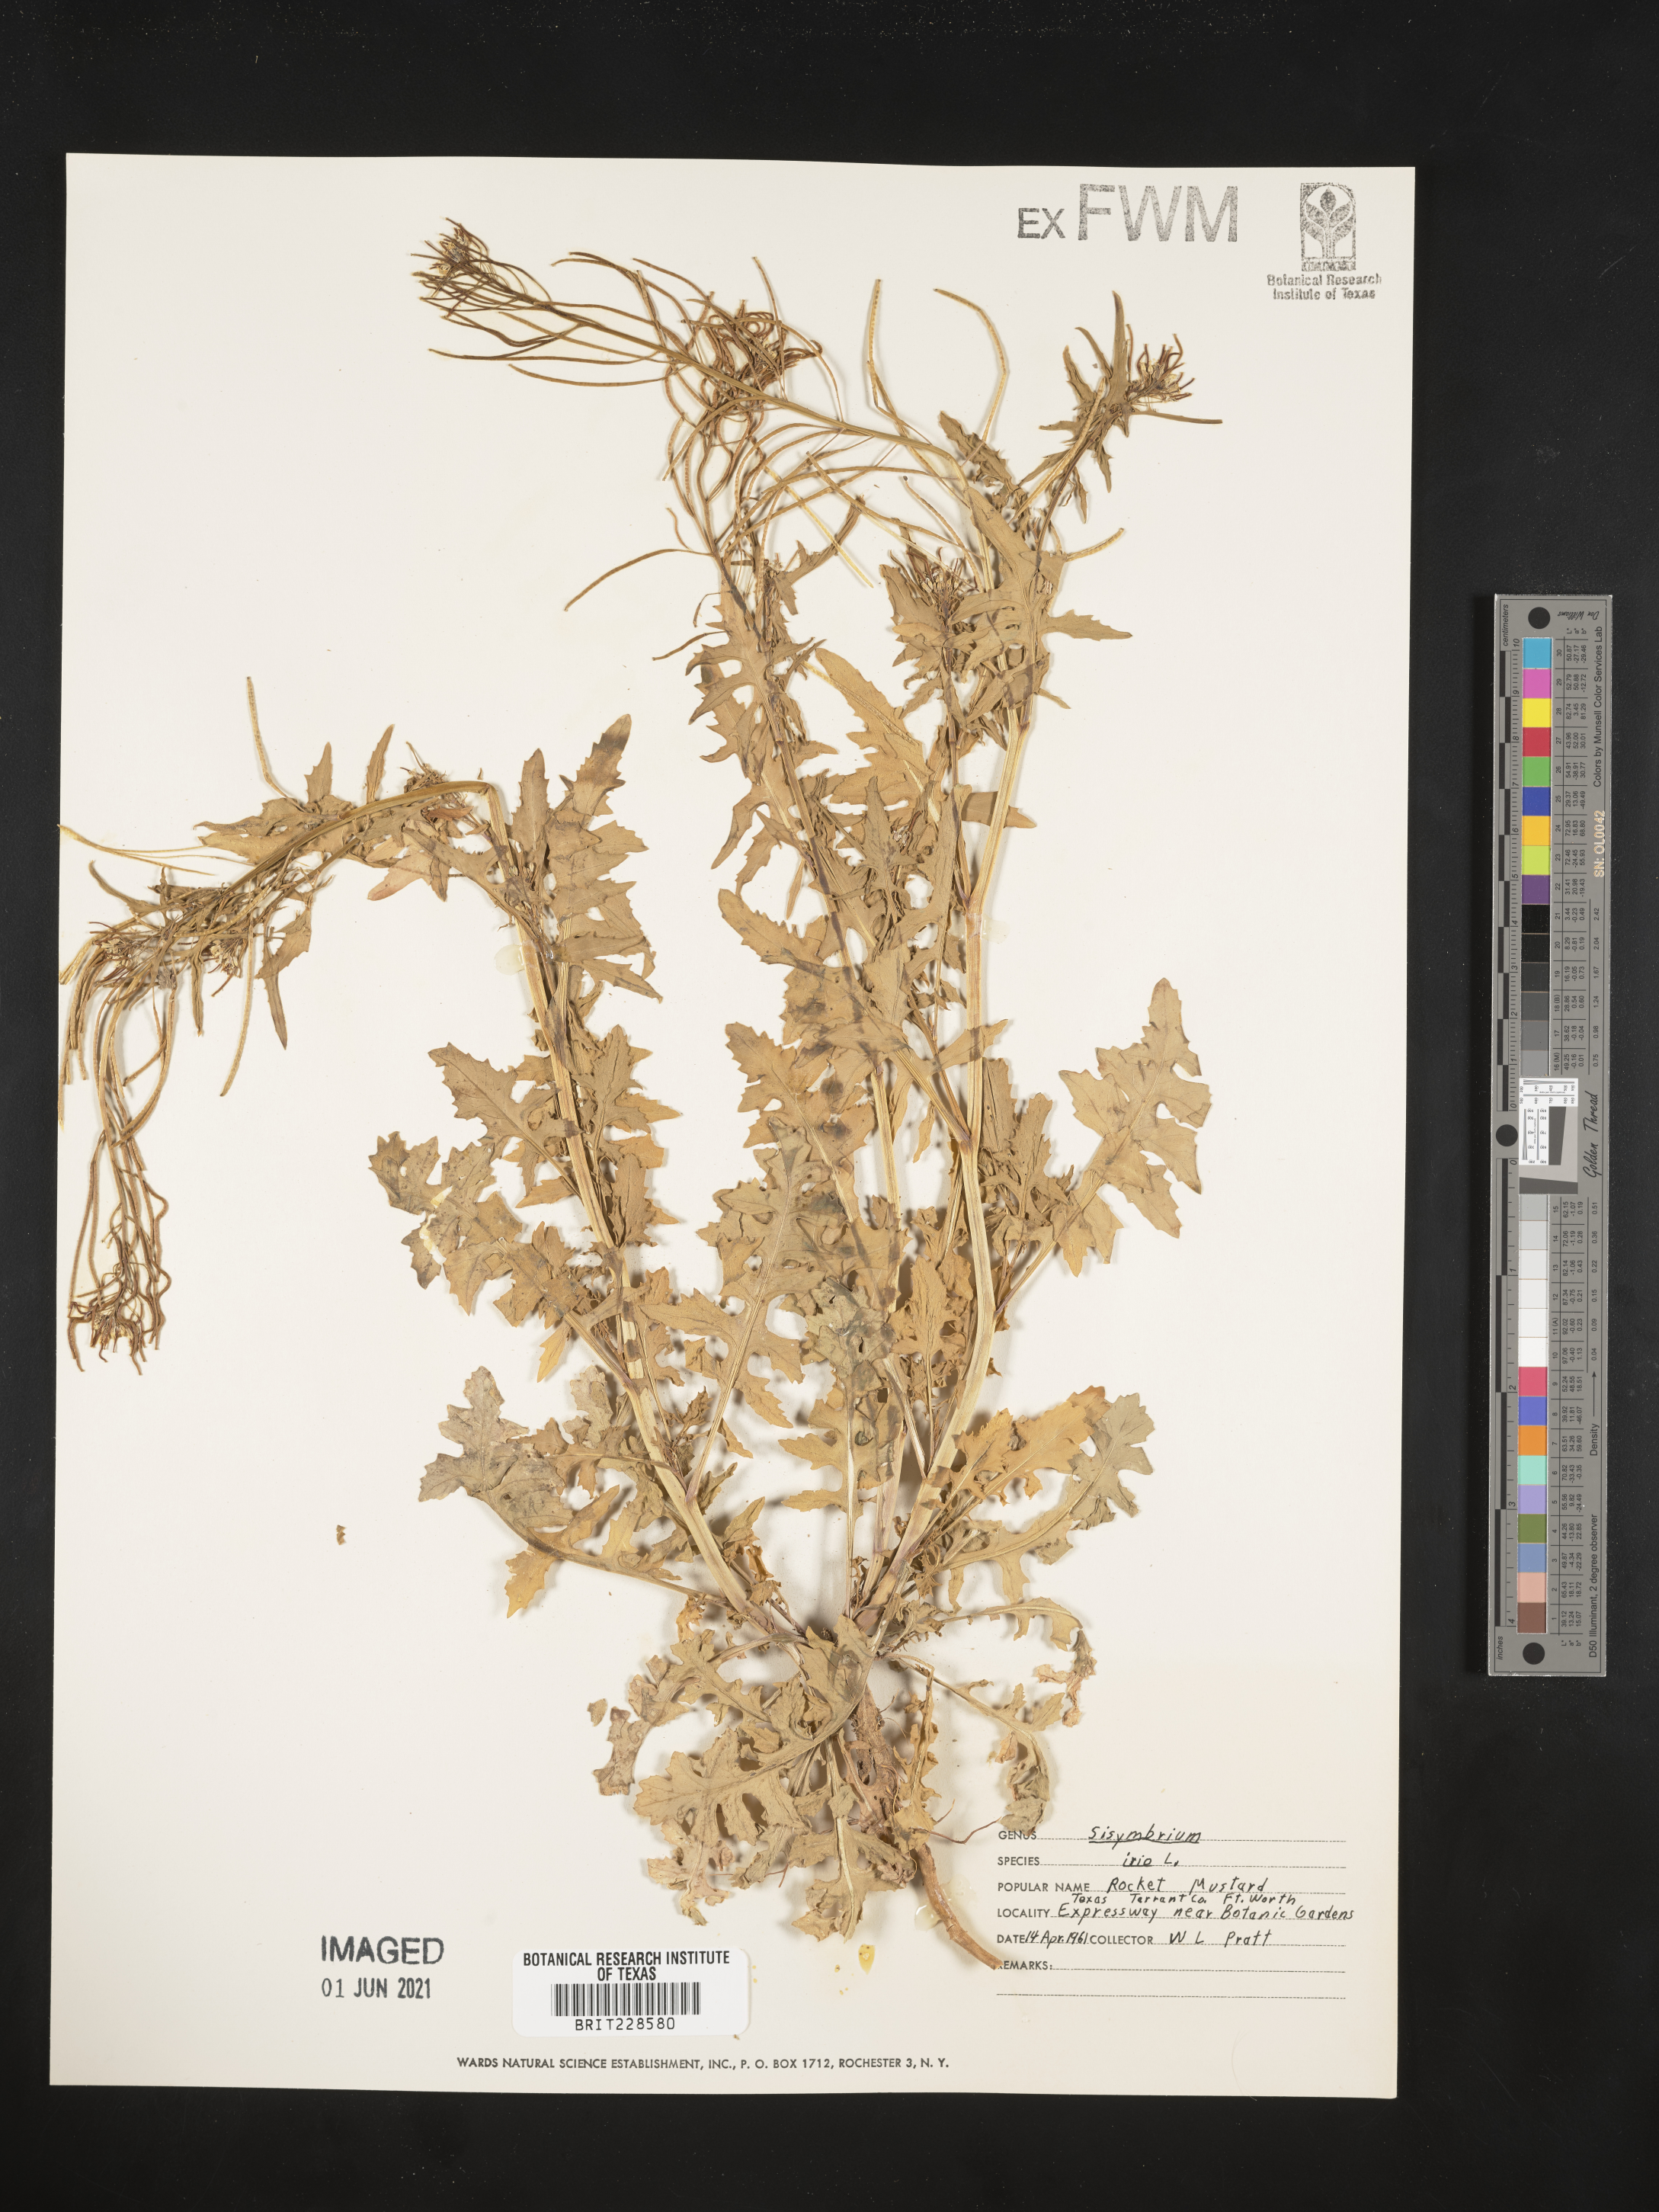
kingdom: Plantae
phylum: Tracheophyta
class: Magnoliopsida
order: Brassicales
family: Brassicaceae
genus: Sisymbrium
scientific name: Sisymbrium irio
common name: London rocket
